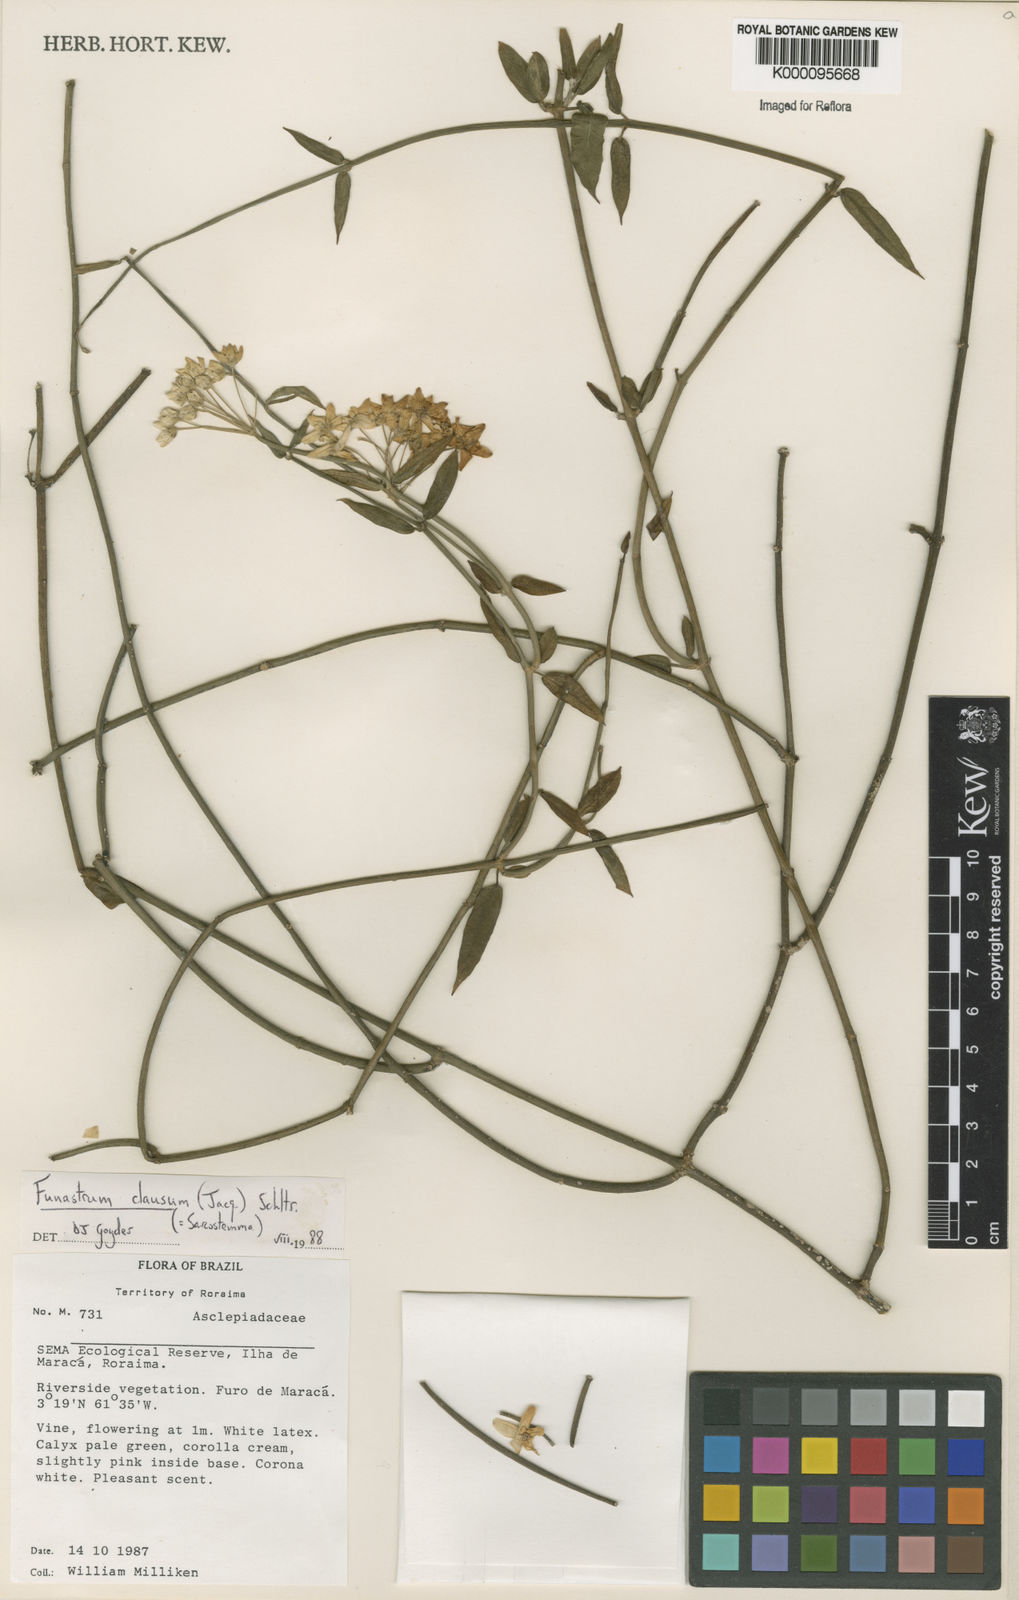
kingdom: Plantae
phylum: Tracheophyta
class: Magnoliopsida
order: Gentianales
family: Apocynaceae
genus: Funastrum
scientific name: Funastrum clausum
